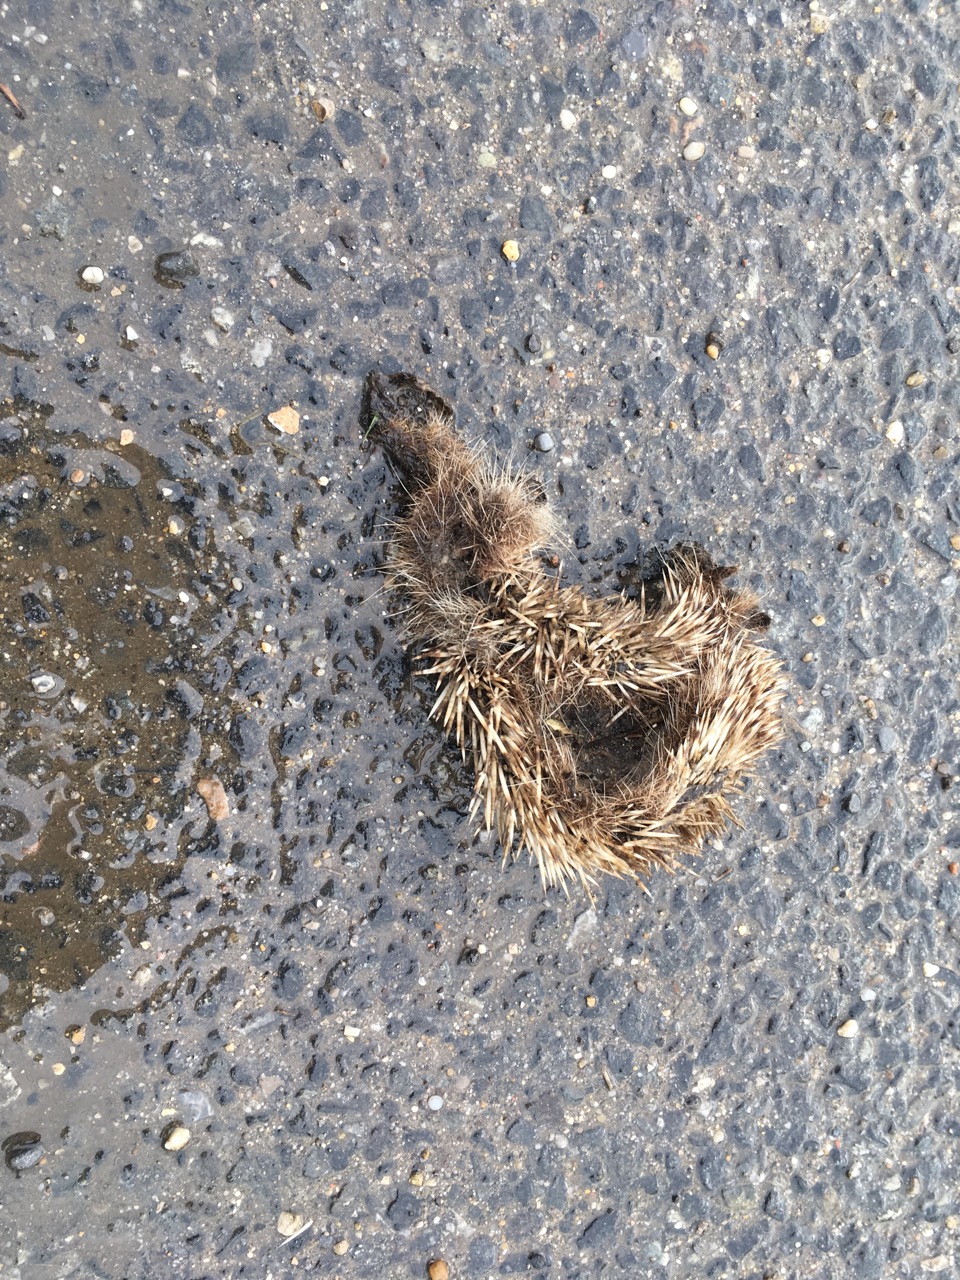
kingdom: Animalia
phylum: Chordata
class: Mammalia
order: Erinaceomorpha
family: Erinaceidae
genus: Erinaceus
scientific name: Erinaceus
